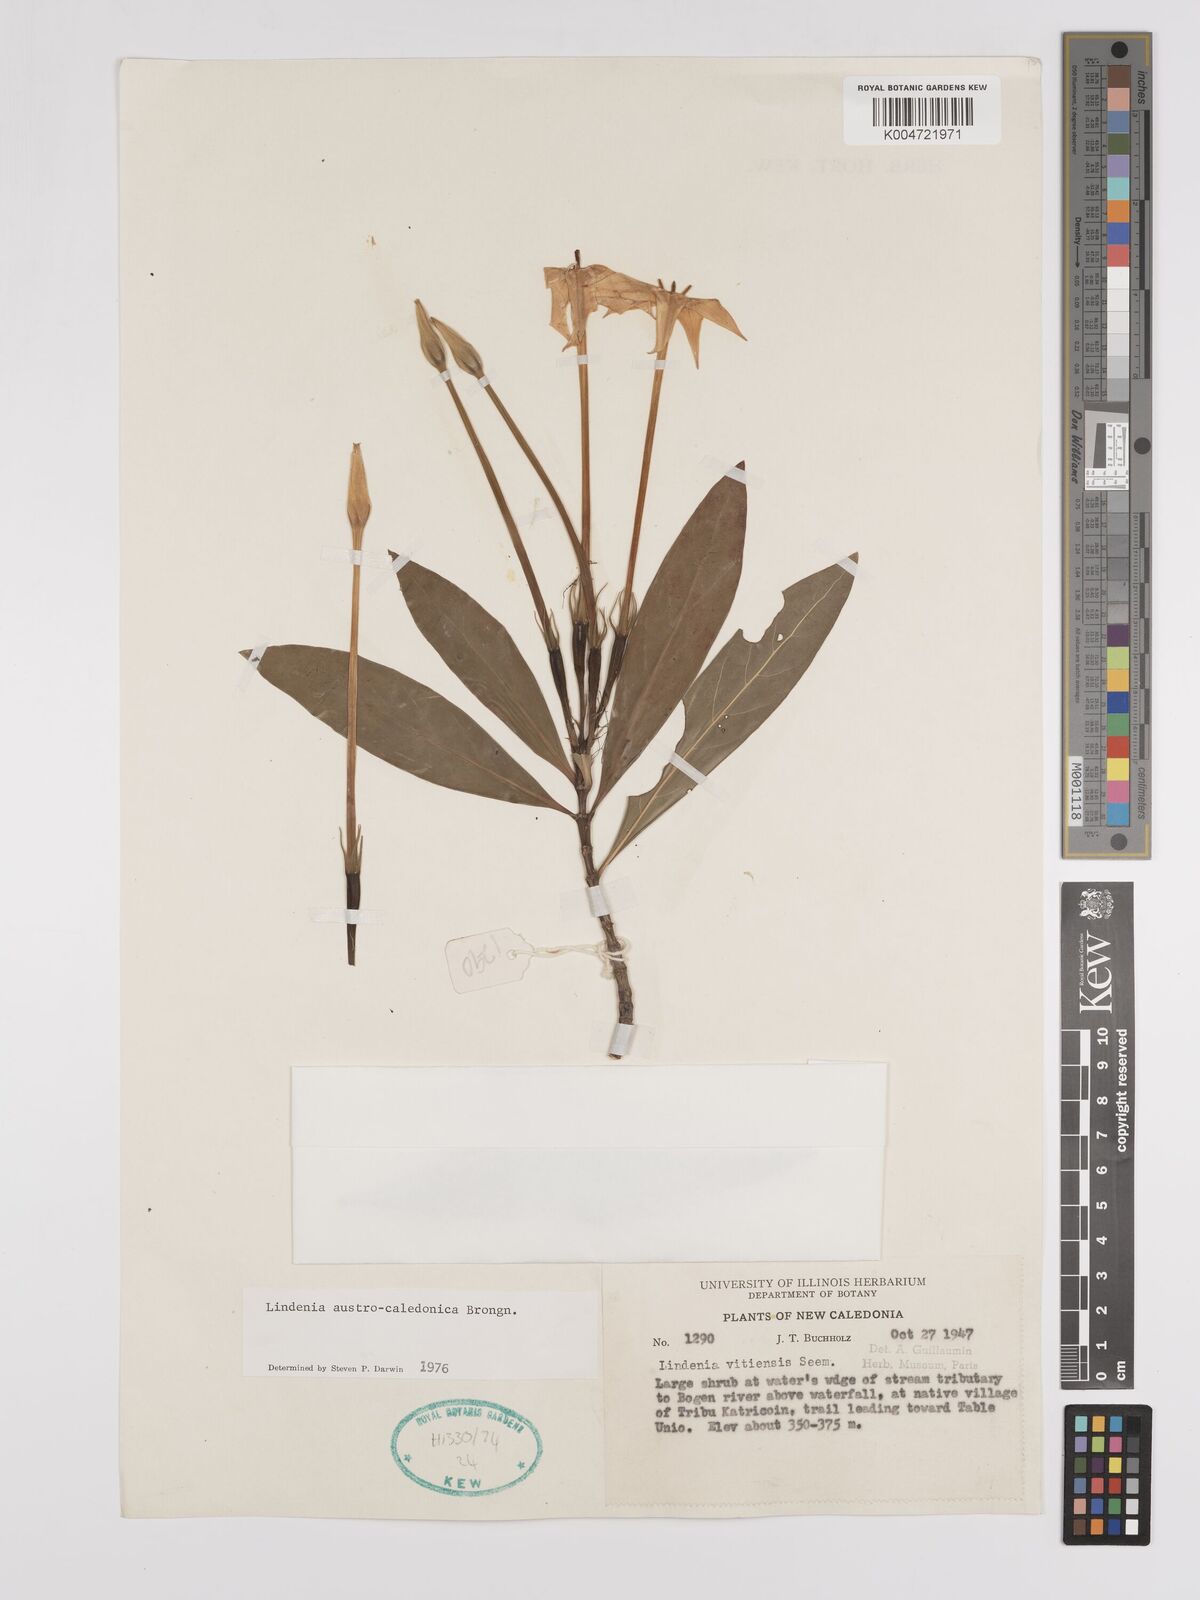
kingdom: Plantae
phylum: Tracheophyta
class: Magnoliopsida
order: Gentianales
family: Rubiaceae
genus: Augusta
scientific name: Augusta austrocaledonica
